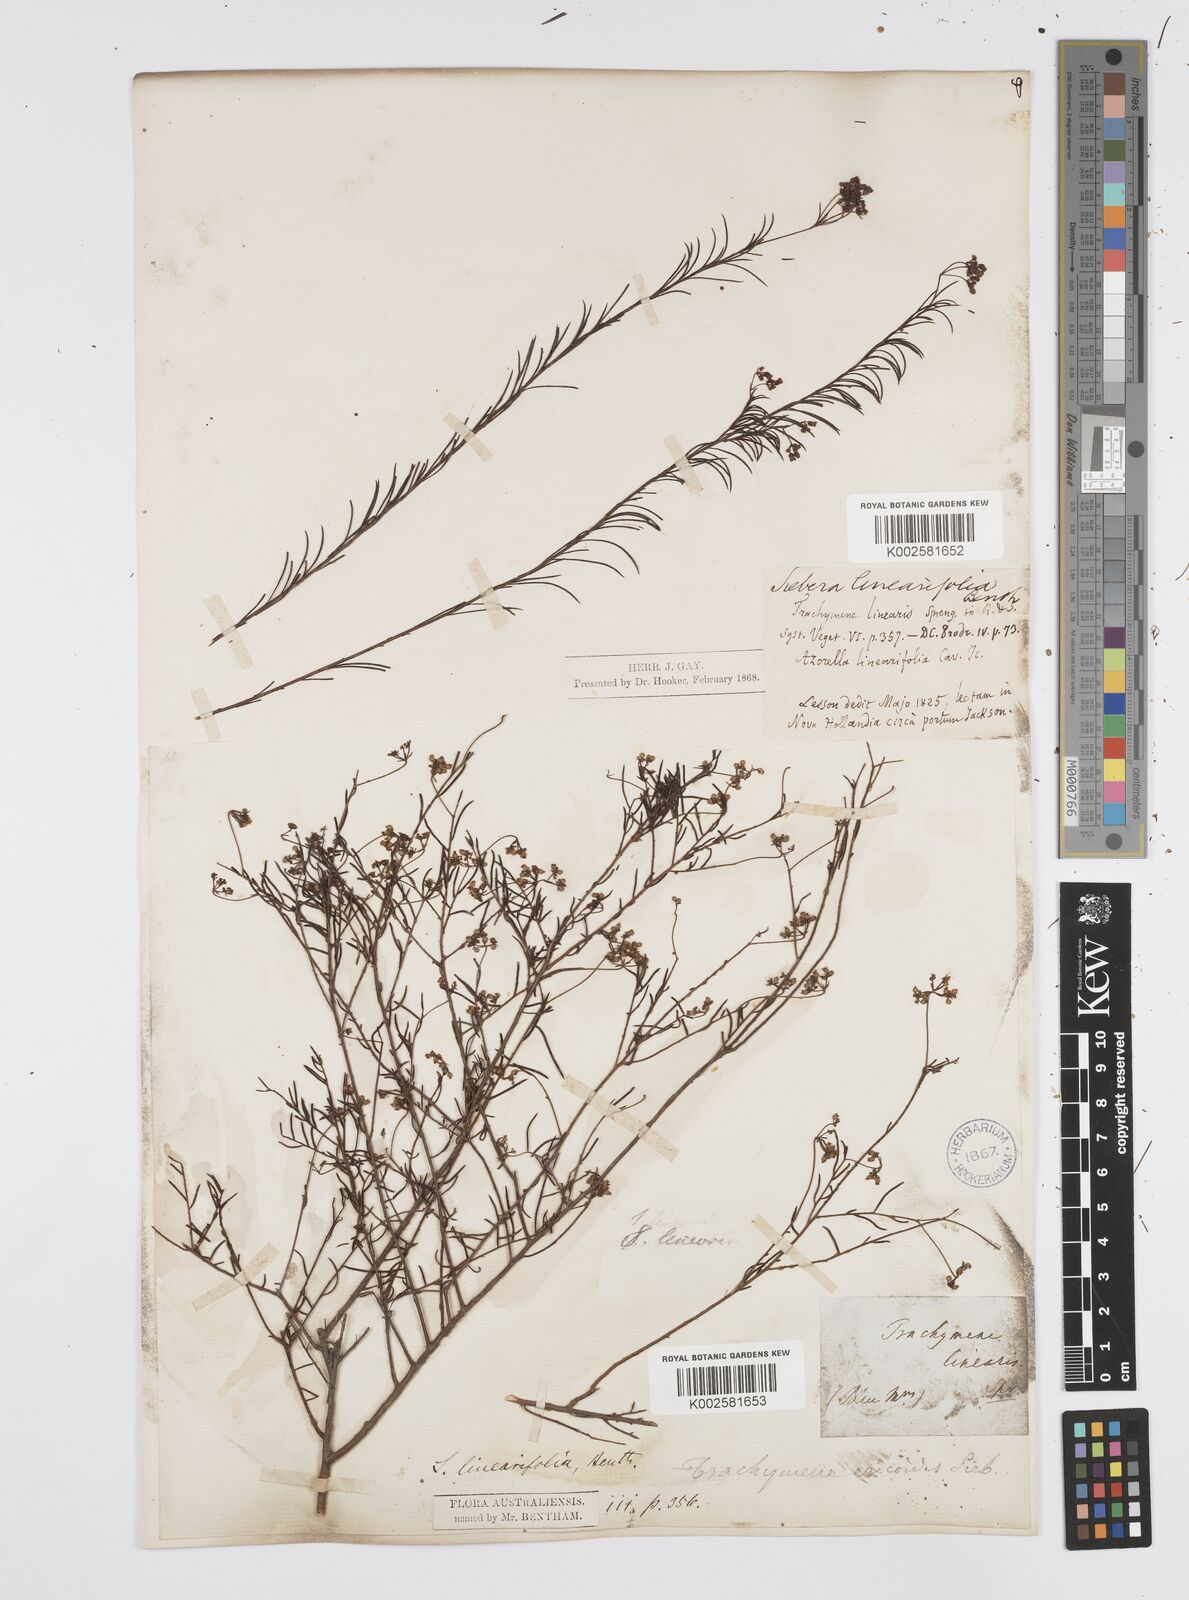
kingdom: Plantae
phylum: Tracheophyta
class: Magnoliopsida
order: Apiales
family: Apiaceae
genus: Platysace
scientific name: Platysace linearifolia
